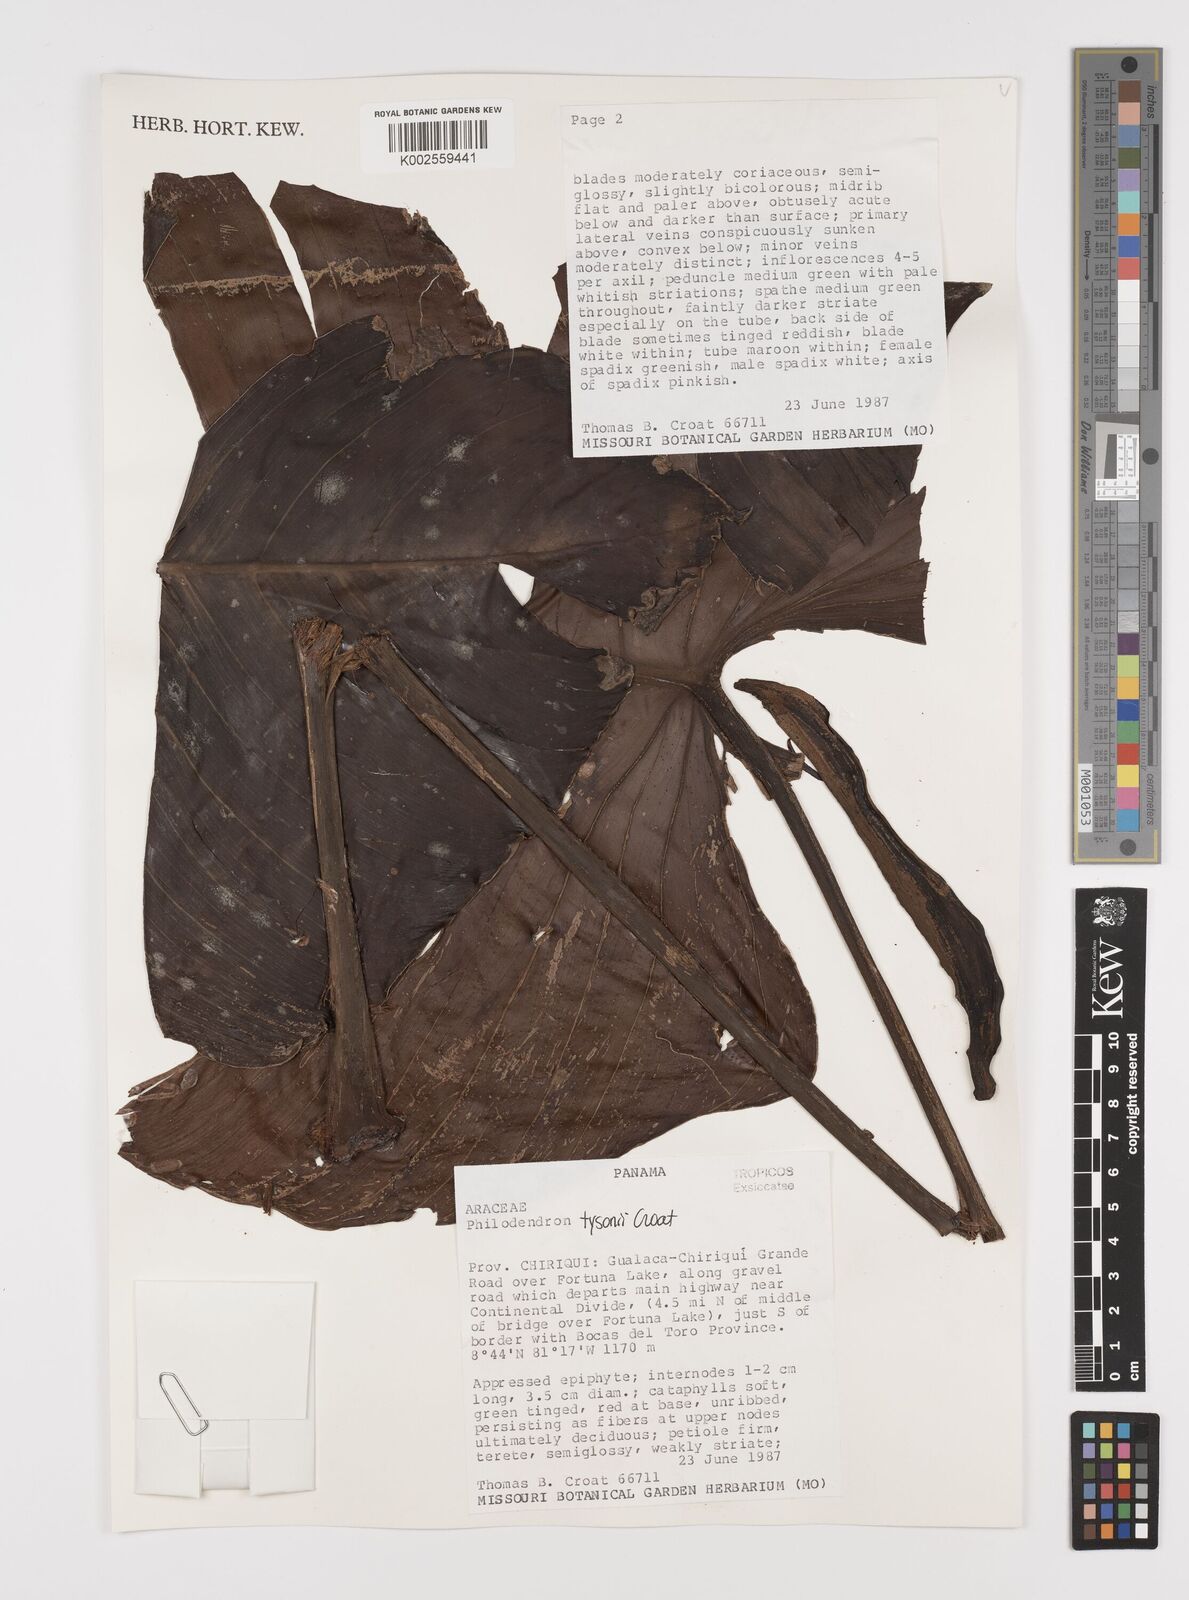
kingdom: Plantae
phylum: Tracheophyta
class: Liliopsida
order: Alismatales
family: Araceae
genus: Philodendron
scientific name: Philodendron tysonii
